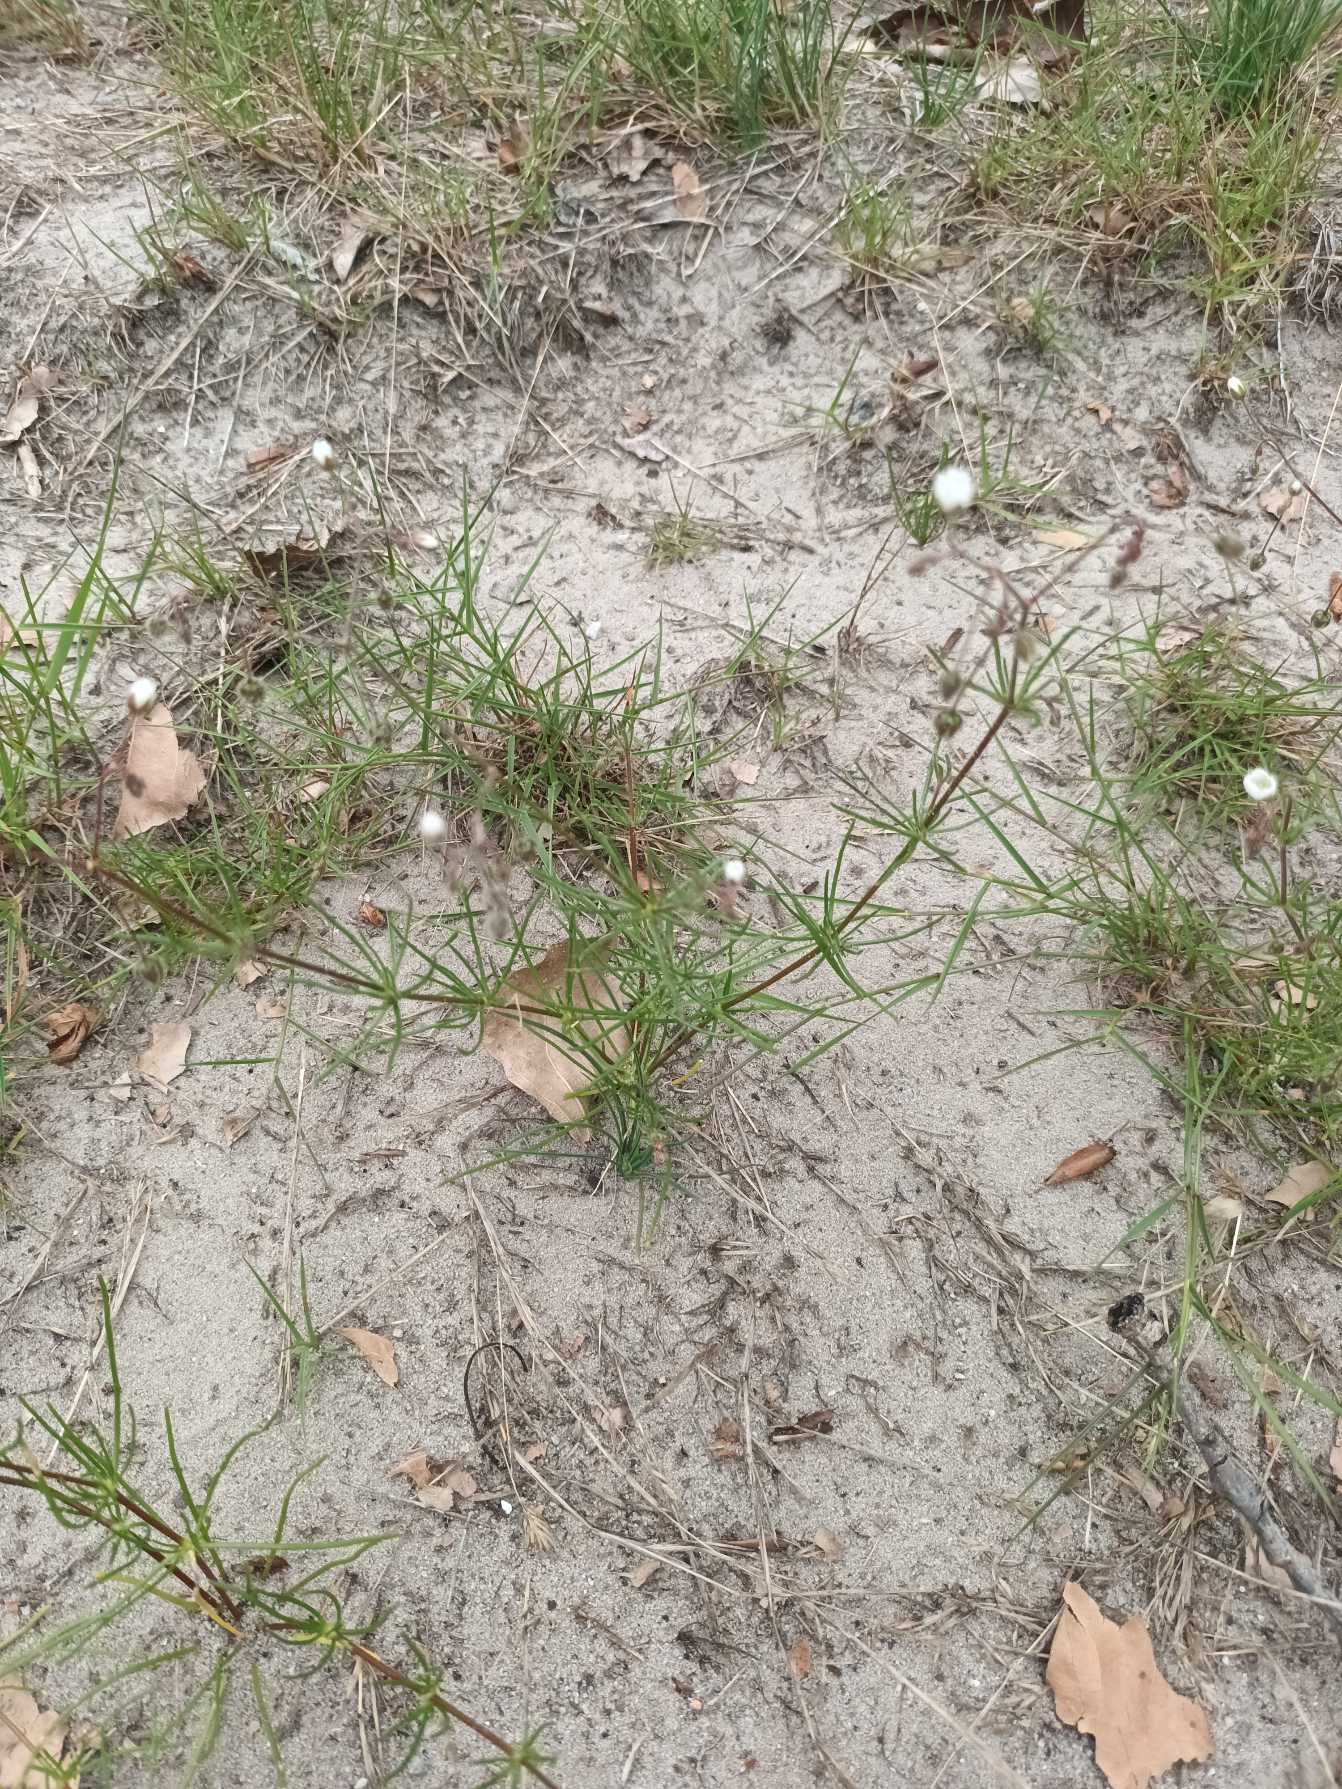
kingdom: Plantae
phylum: Tracheophyta
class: Magnoliopsida
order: Caryophyllales
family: Caryophyllaceae
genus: Spergula
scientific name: Spergula arvensis
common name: Foder-spergel
